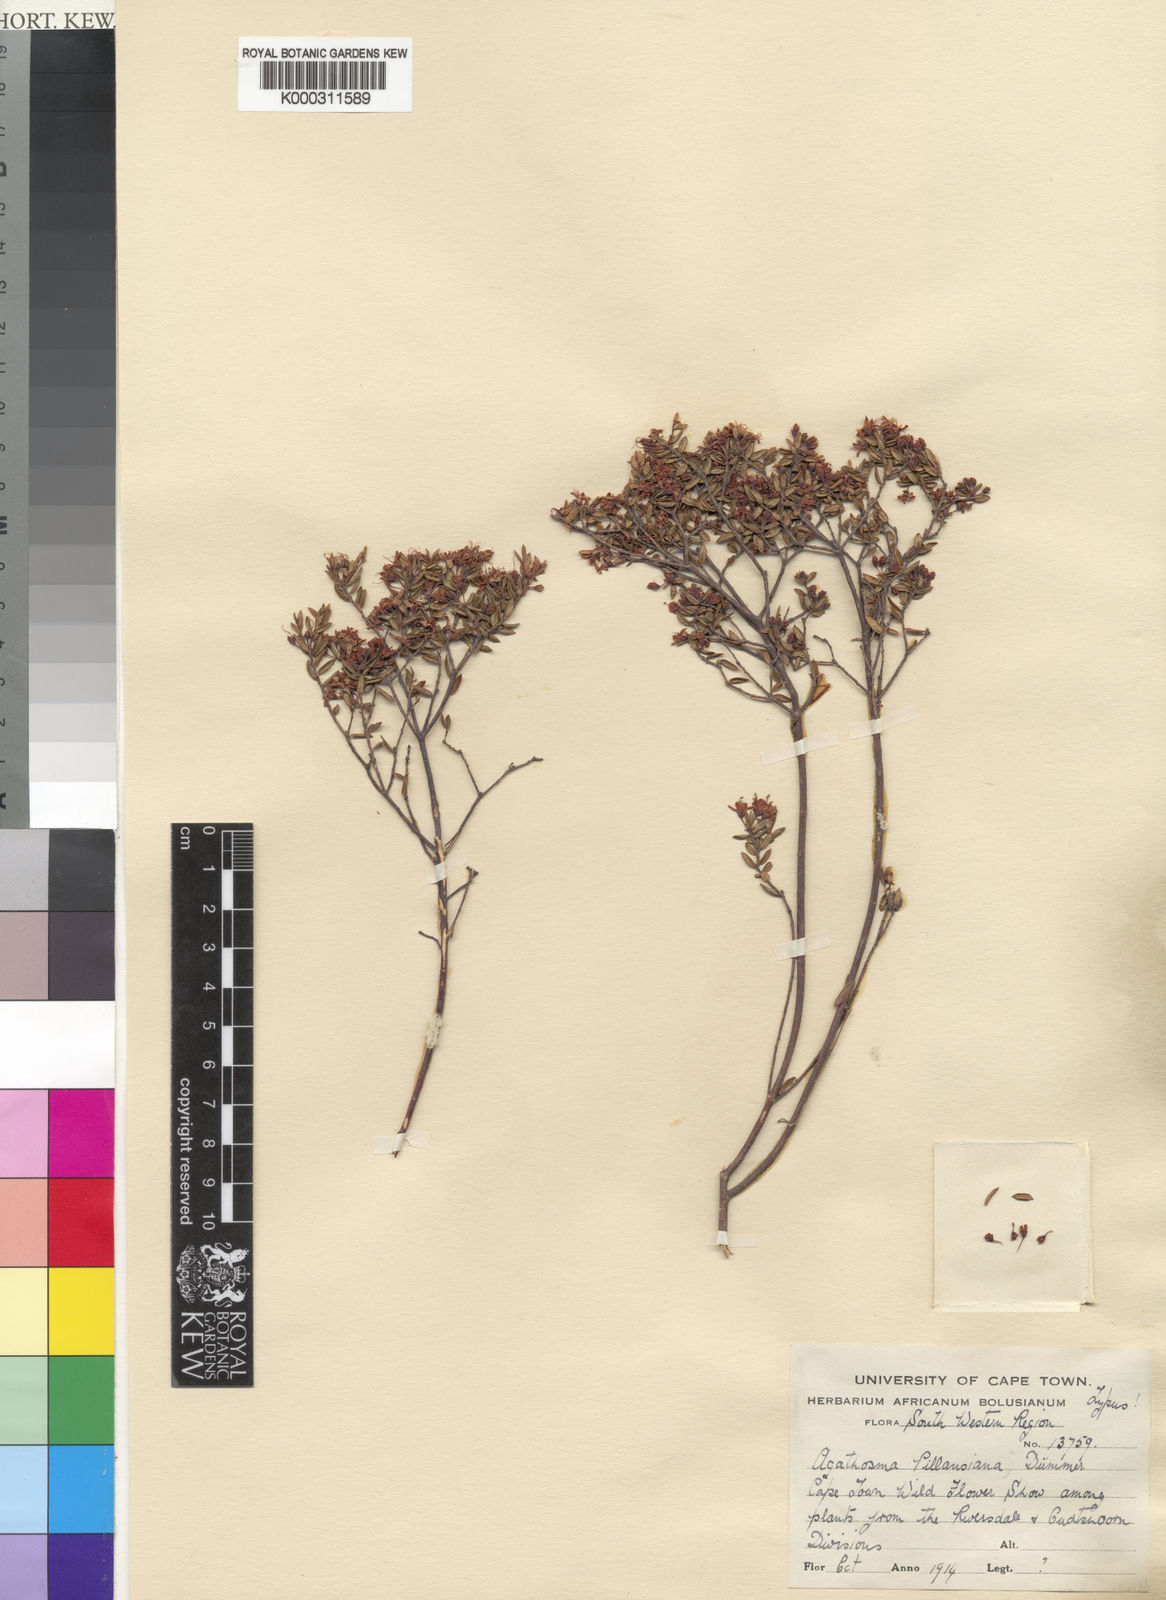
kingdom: Plantae
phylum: Tracheophyta
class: Magnoliopsida
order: Sapindales
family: Rutaceae
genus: Agathosma
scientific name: Agathosma mundii
